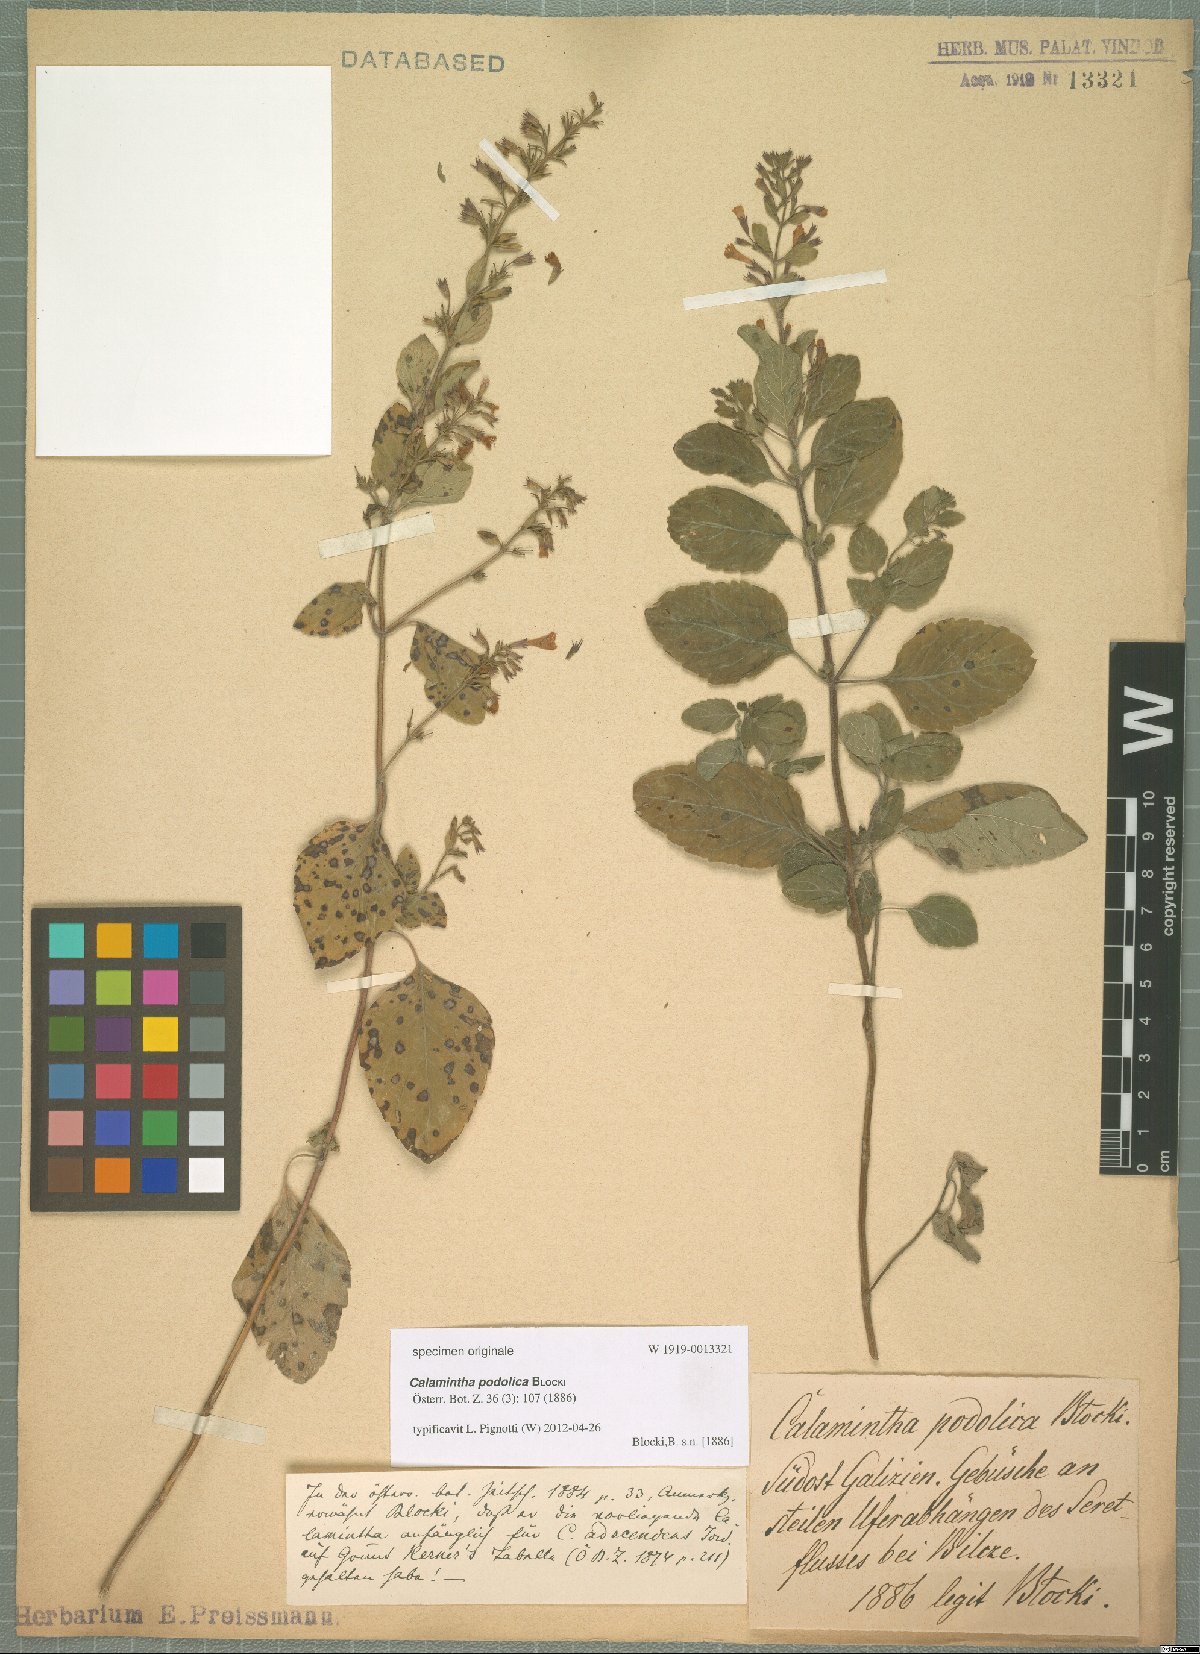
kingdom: Plantae
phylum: Tracheophyta
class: Magnoliopsida
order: Lamiales
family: Lamiaceae
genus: Calamintha
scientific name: Calamintha
